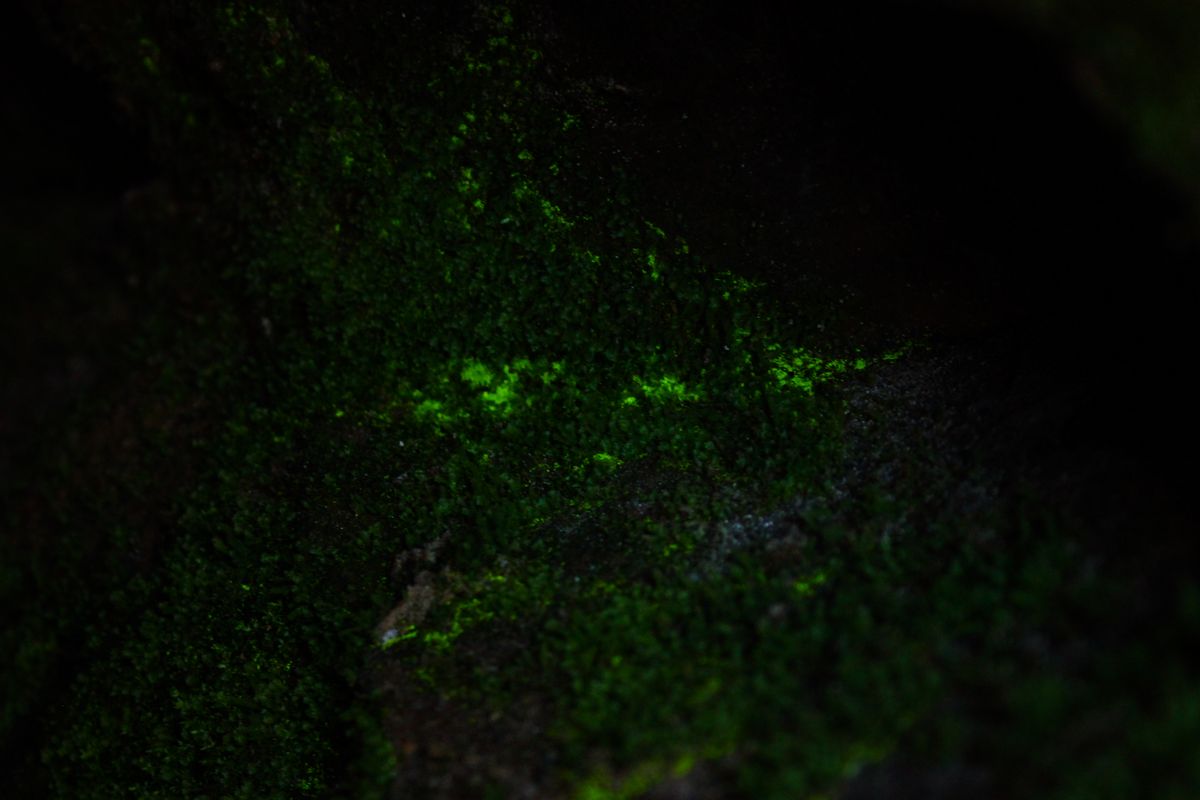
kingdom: Plantae
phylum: Bryophyta
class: Bryopsida
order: Dicranales
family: Schistostegaceae
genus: Schistostega
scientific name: Schistostega pennata
